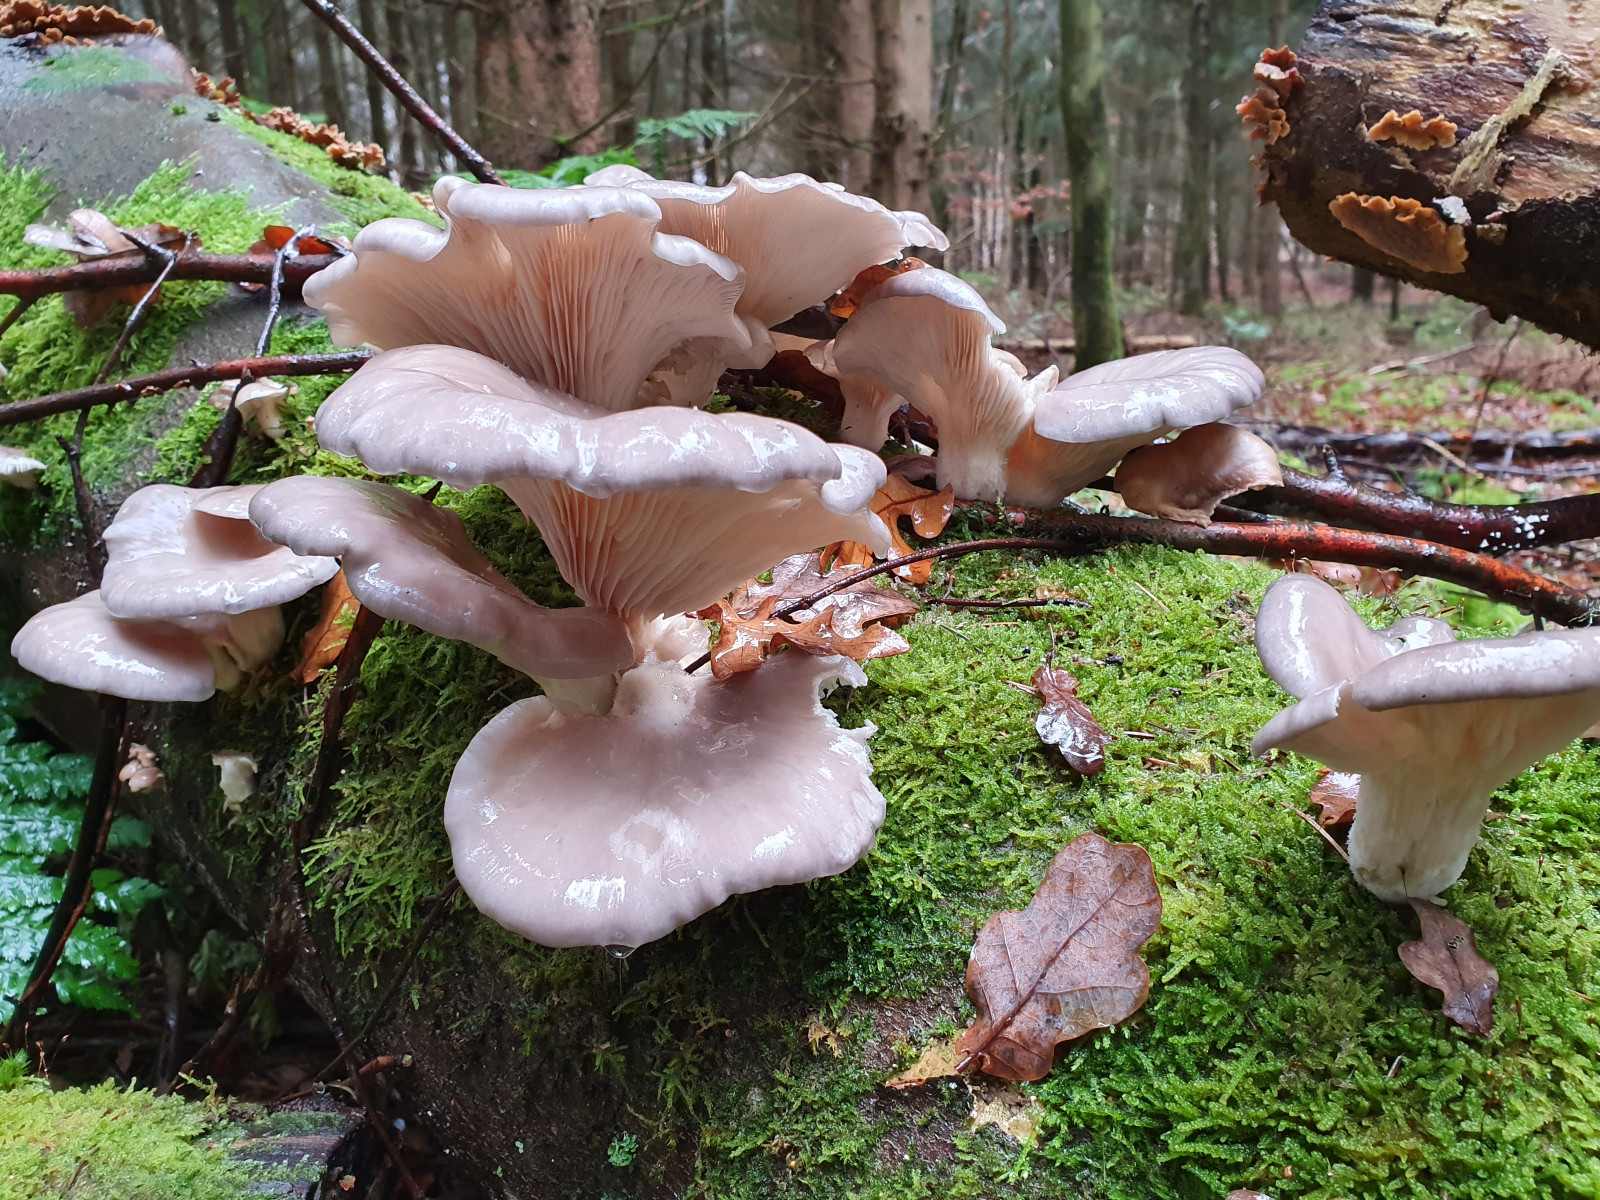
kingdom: Fungi
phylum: Basidiomycota
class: Agaricomycetes
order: Agaricales
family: Pleurotaceae
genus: Pleurotus
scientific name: Pleurotus ostreatus
